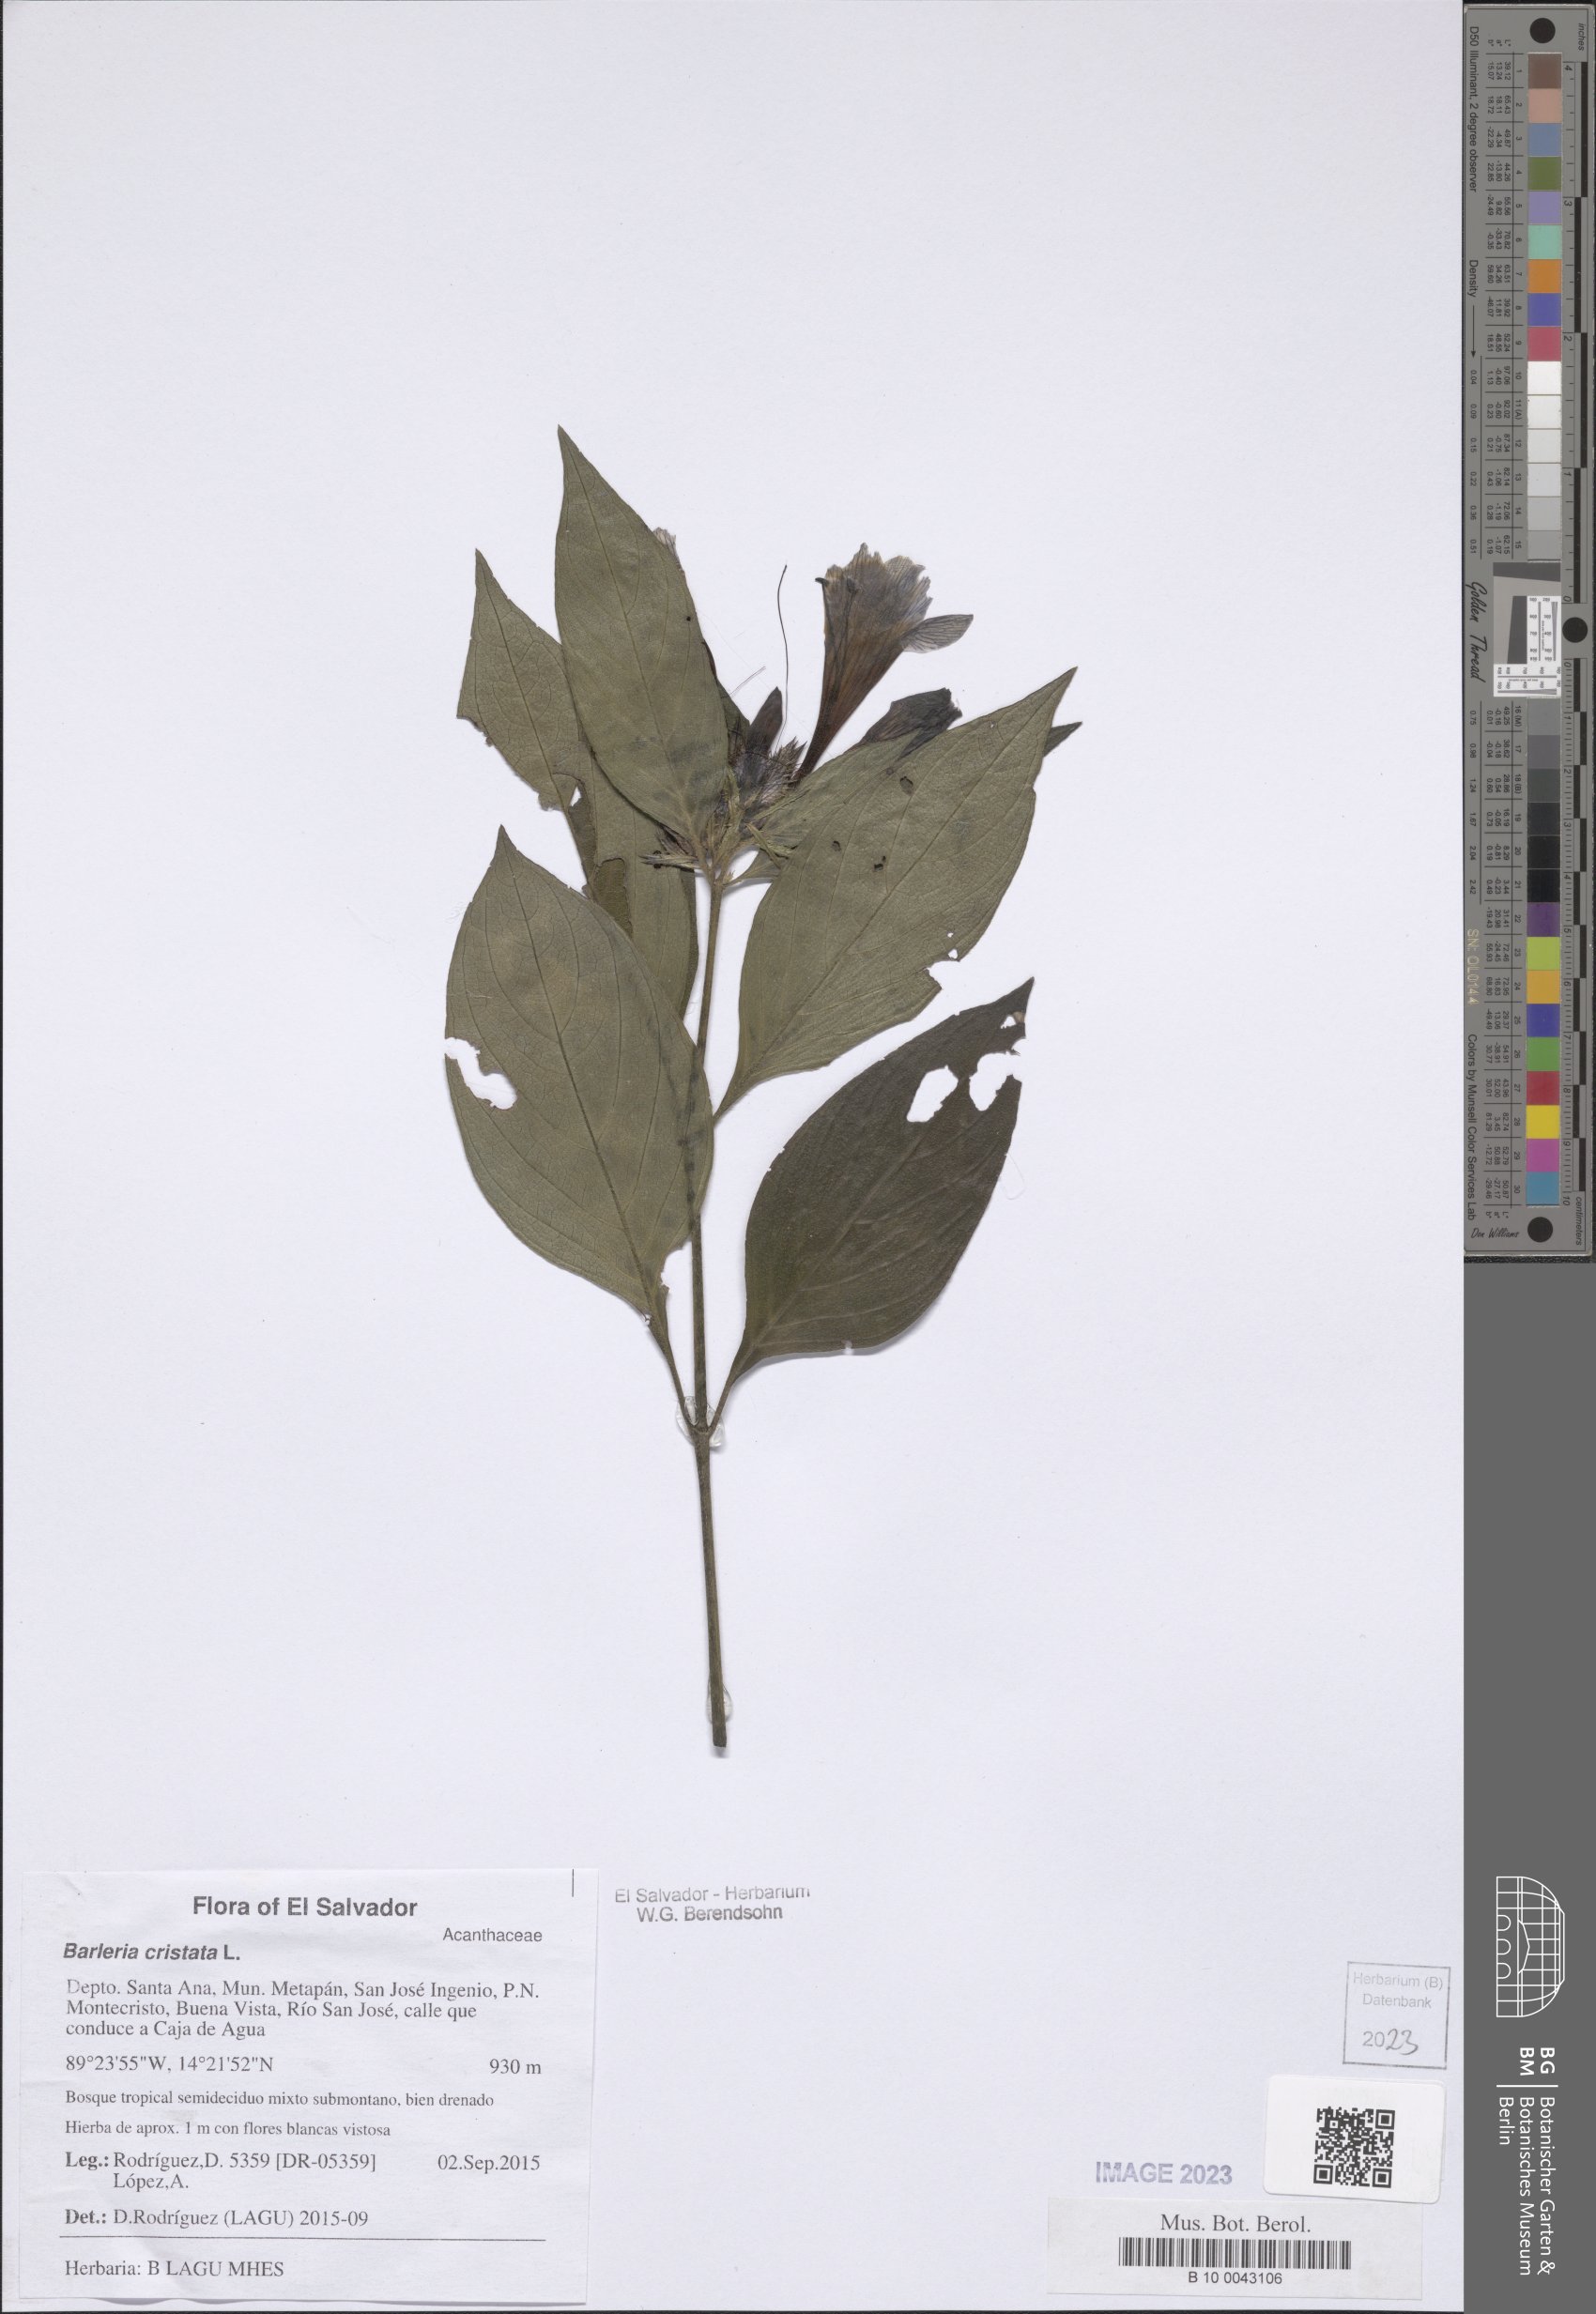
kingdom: Plantae
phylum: Tracheophyta
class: Magnoliopsida
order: Lamiales
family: Acanthaceae
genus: Barleria
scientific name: Barleria cristata
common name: Crested philippine violet
